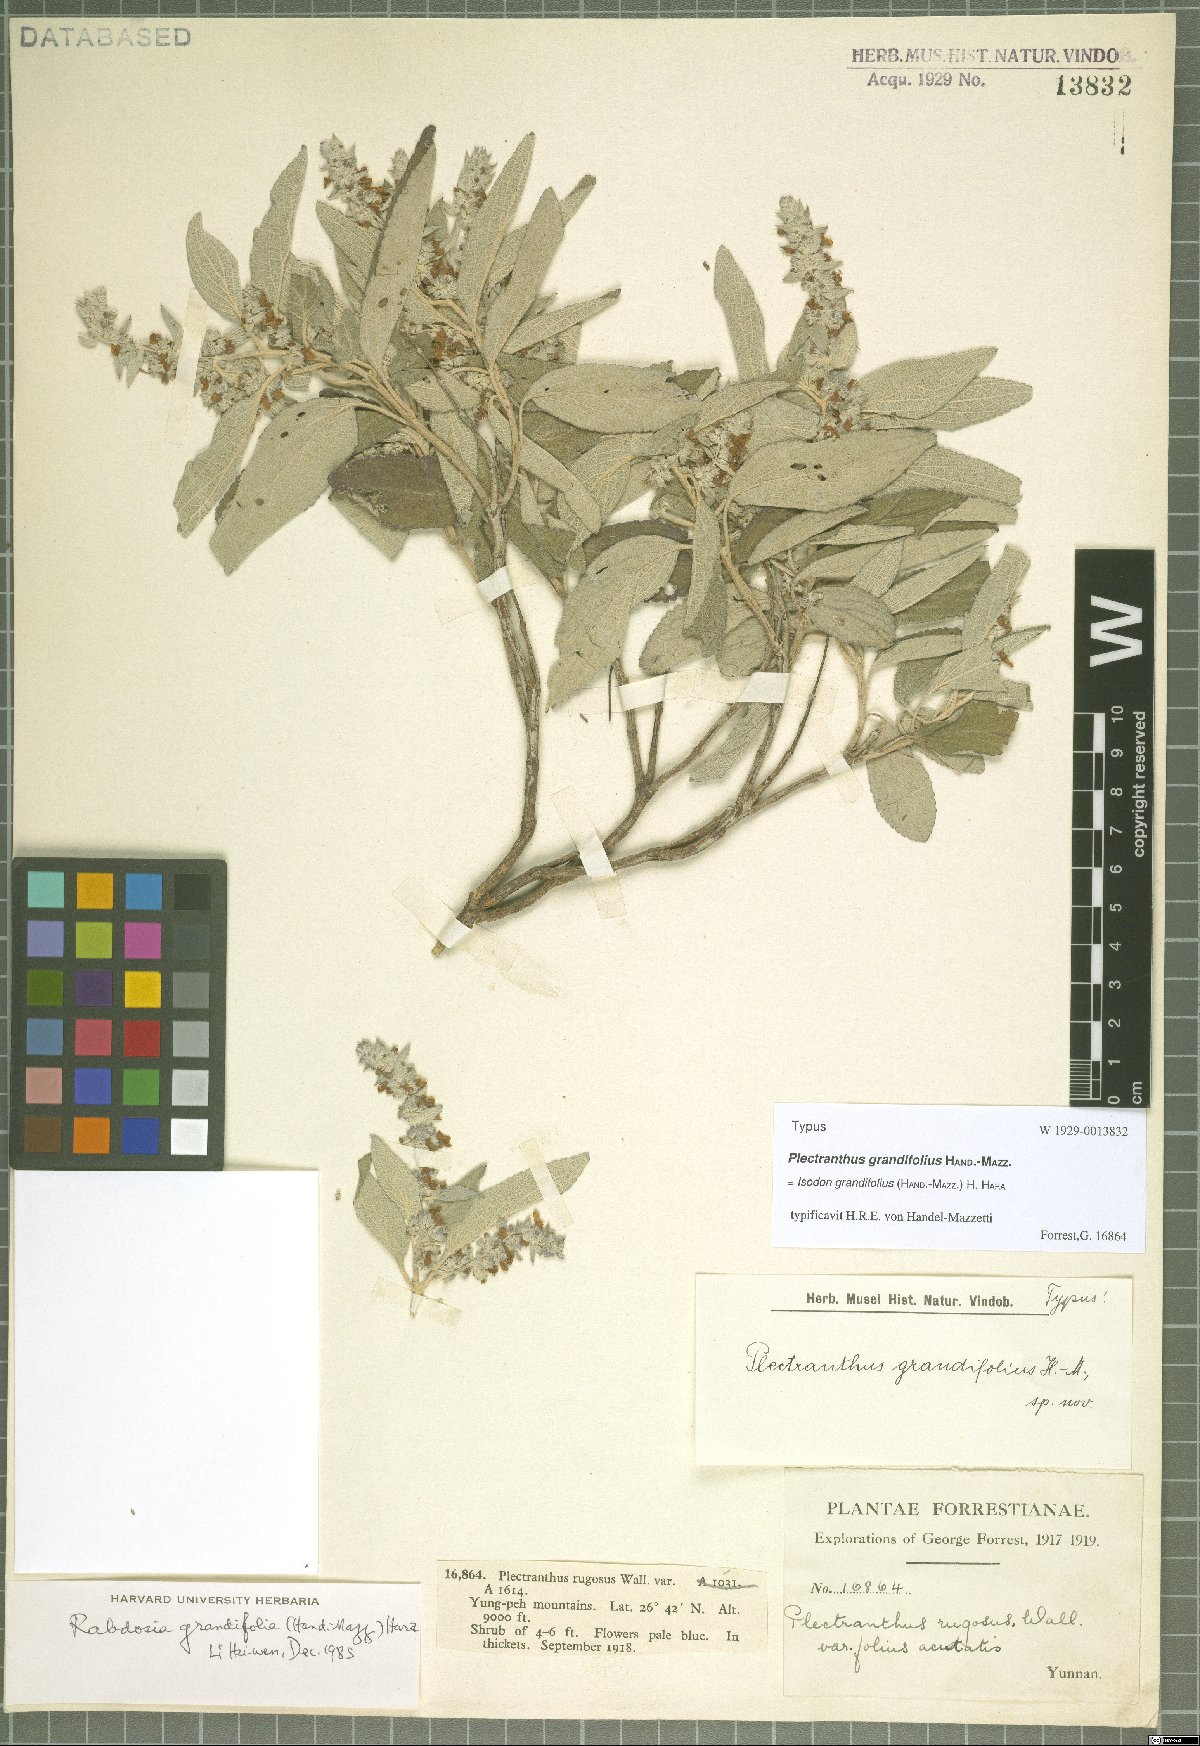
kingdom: Plantae
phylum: Tracheophyta
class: Magnoliopsida
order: Lamiales
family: Lamiaceae
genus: Isodon
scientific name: Isodon grandifolius
